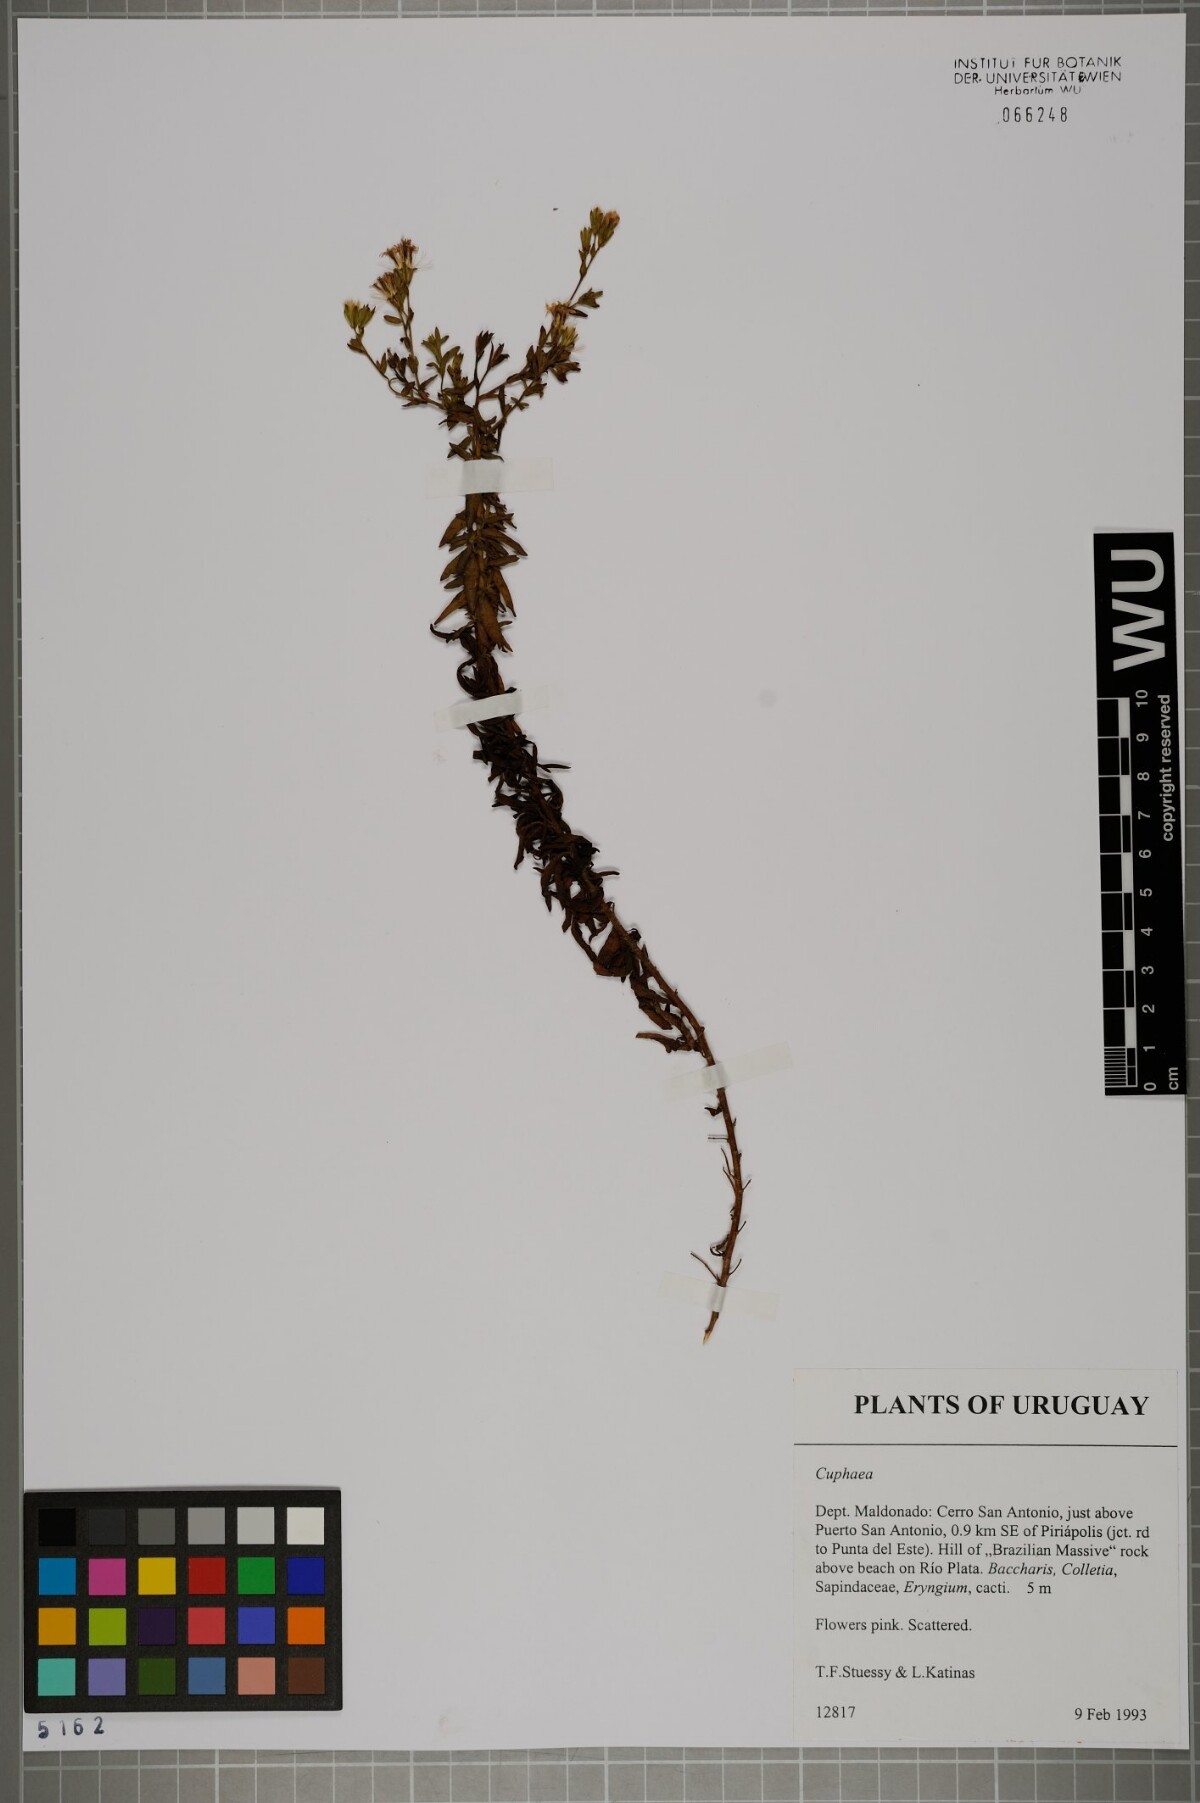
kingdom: Plantae
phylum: Tracheophyta
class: Magnoliopsida
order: Myrtales
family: Lythraceae
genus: Cuphea
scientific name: Cuphea
